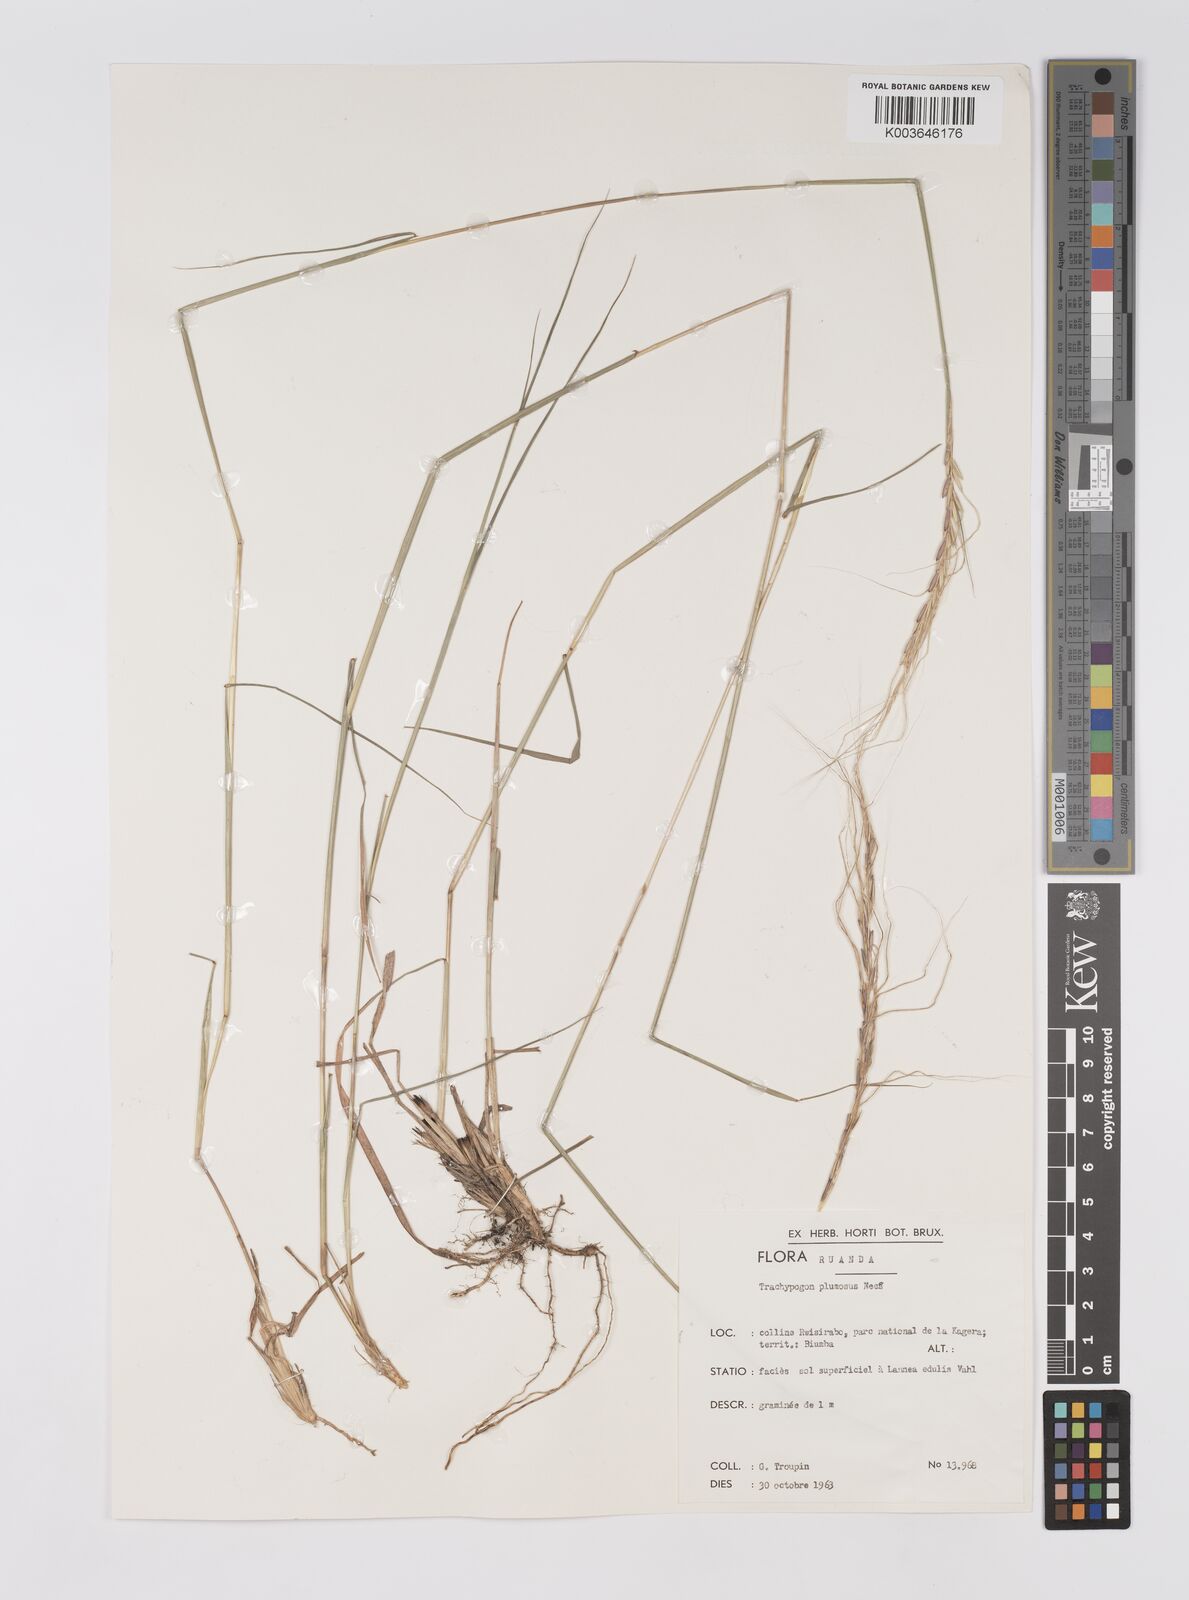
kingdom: Plantae
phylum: Tracheophyta
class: Liliopsida
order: Poales
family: Poaceae
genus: Trachypogon
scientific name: Trachypogon spicatus
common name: Crinkle-awn
